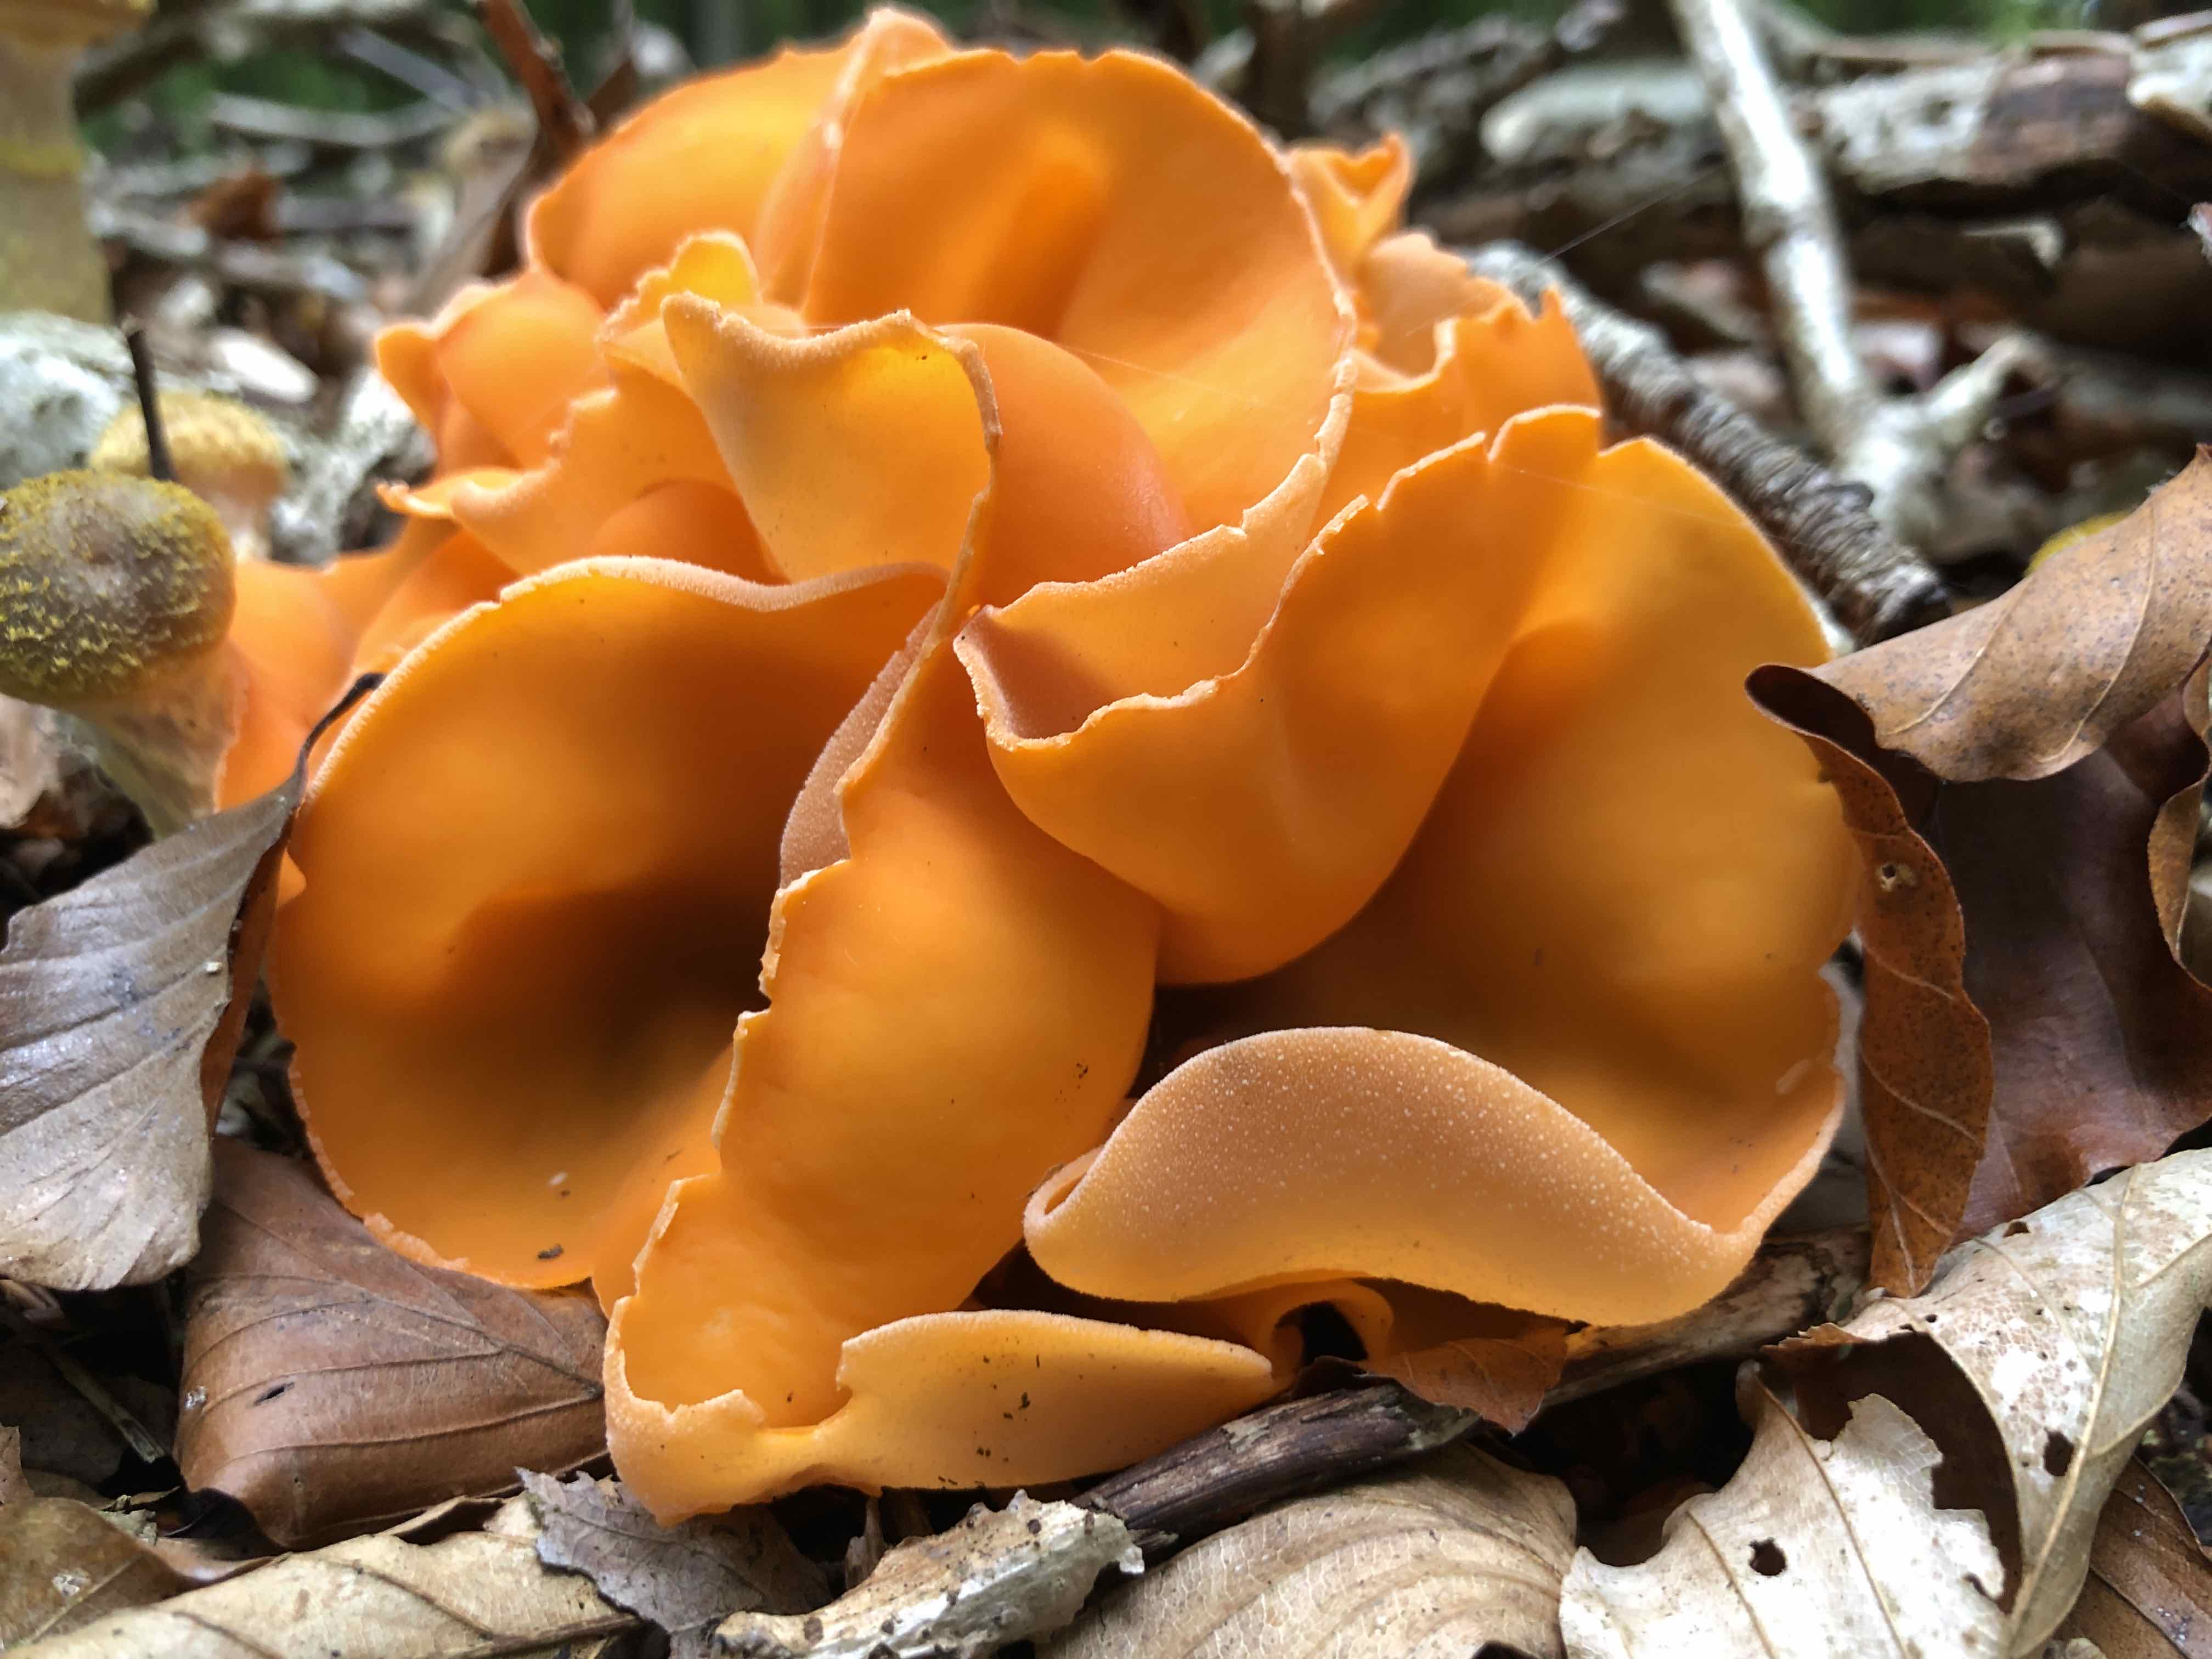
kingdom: Fungi
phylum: Ascomycota
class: Pezizomycetes
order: Pezizales
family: Pyronemataceae
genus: Aleuria
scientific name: Aleuria aurantia
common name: almindelig orangebæger
